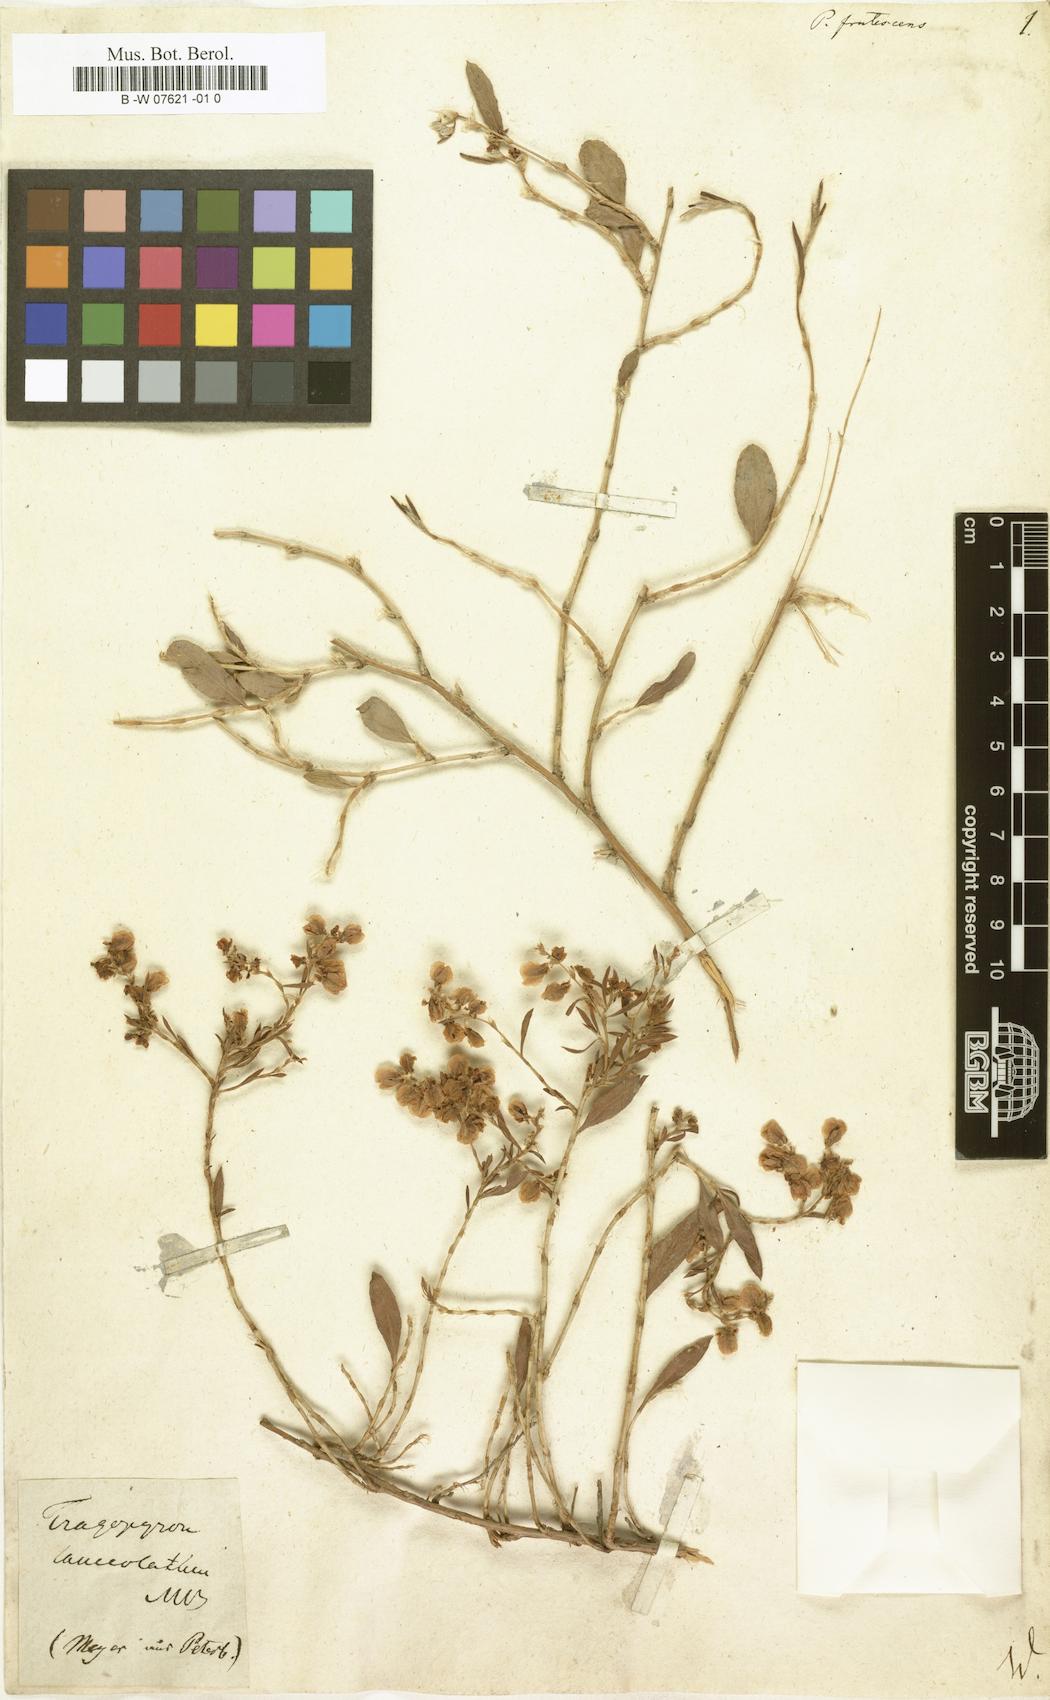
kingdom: Plantae
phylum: Tracheophyta
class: Magnoliopsida
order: Caryophyllales
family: Polygonaceae
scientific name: Polygonaceae
